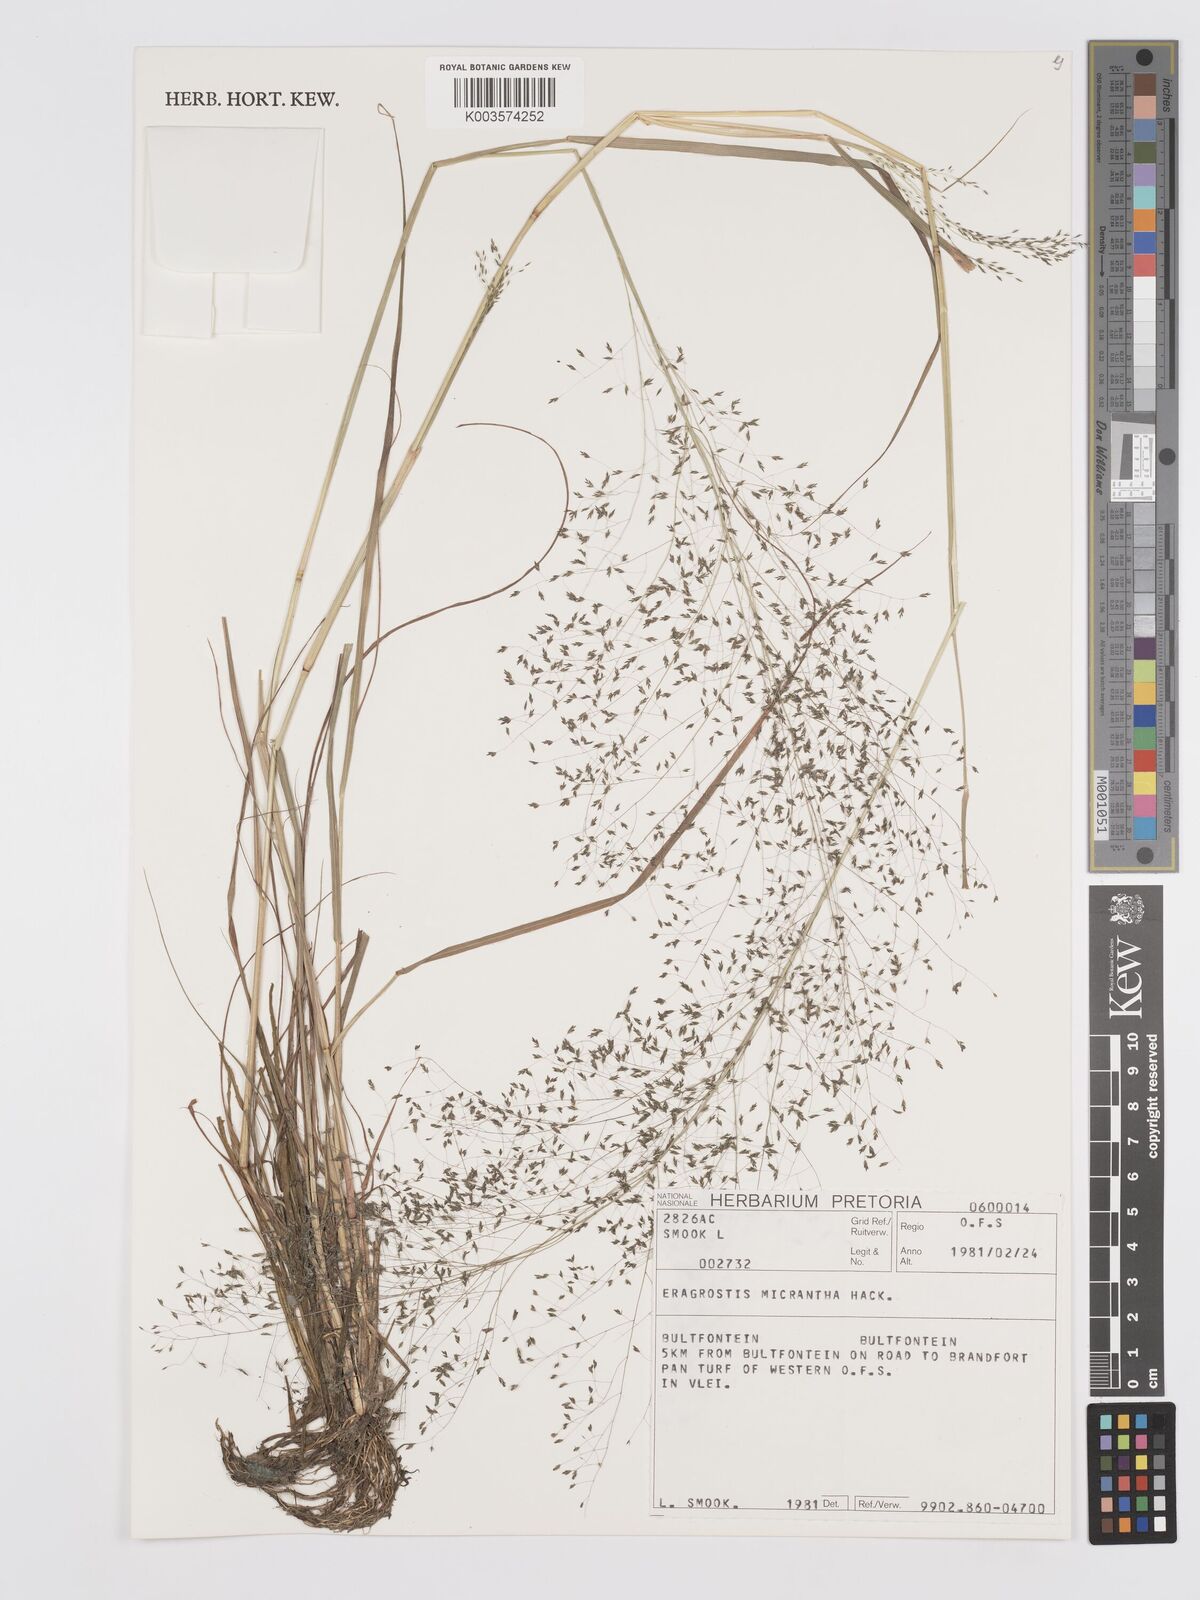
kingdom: Plantae
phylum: Tracheophyta
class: Liliopsida
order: Poales
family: Poaceae
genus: Eragrostis
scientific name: Eragrostis micrantha
